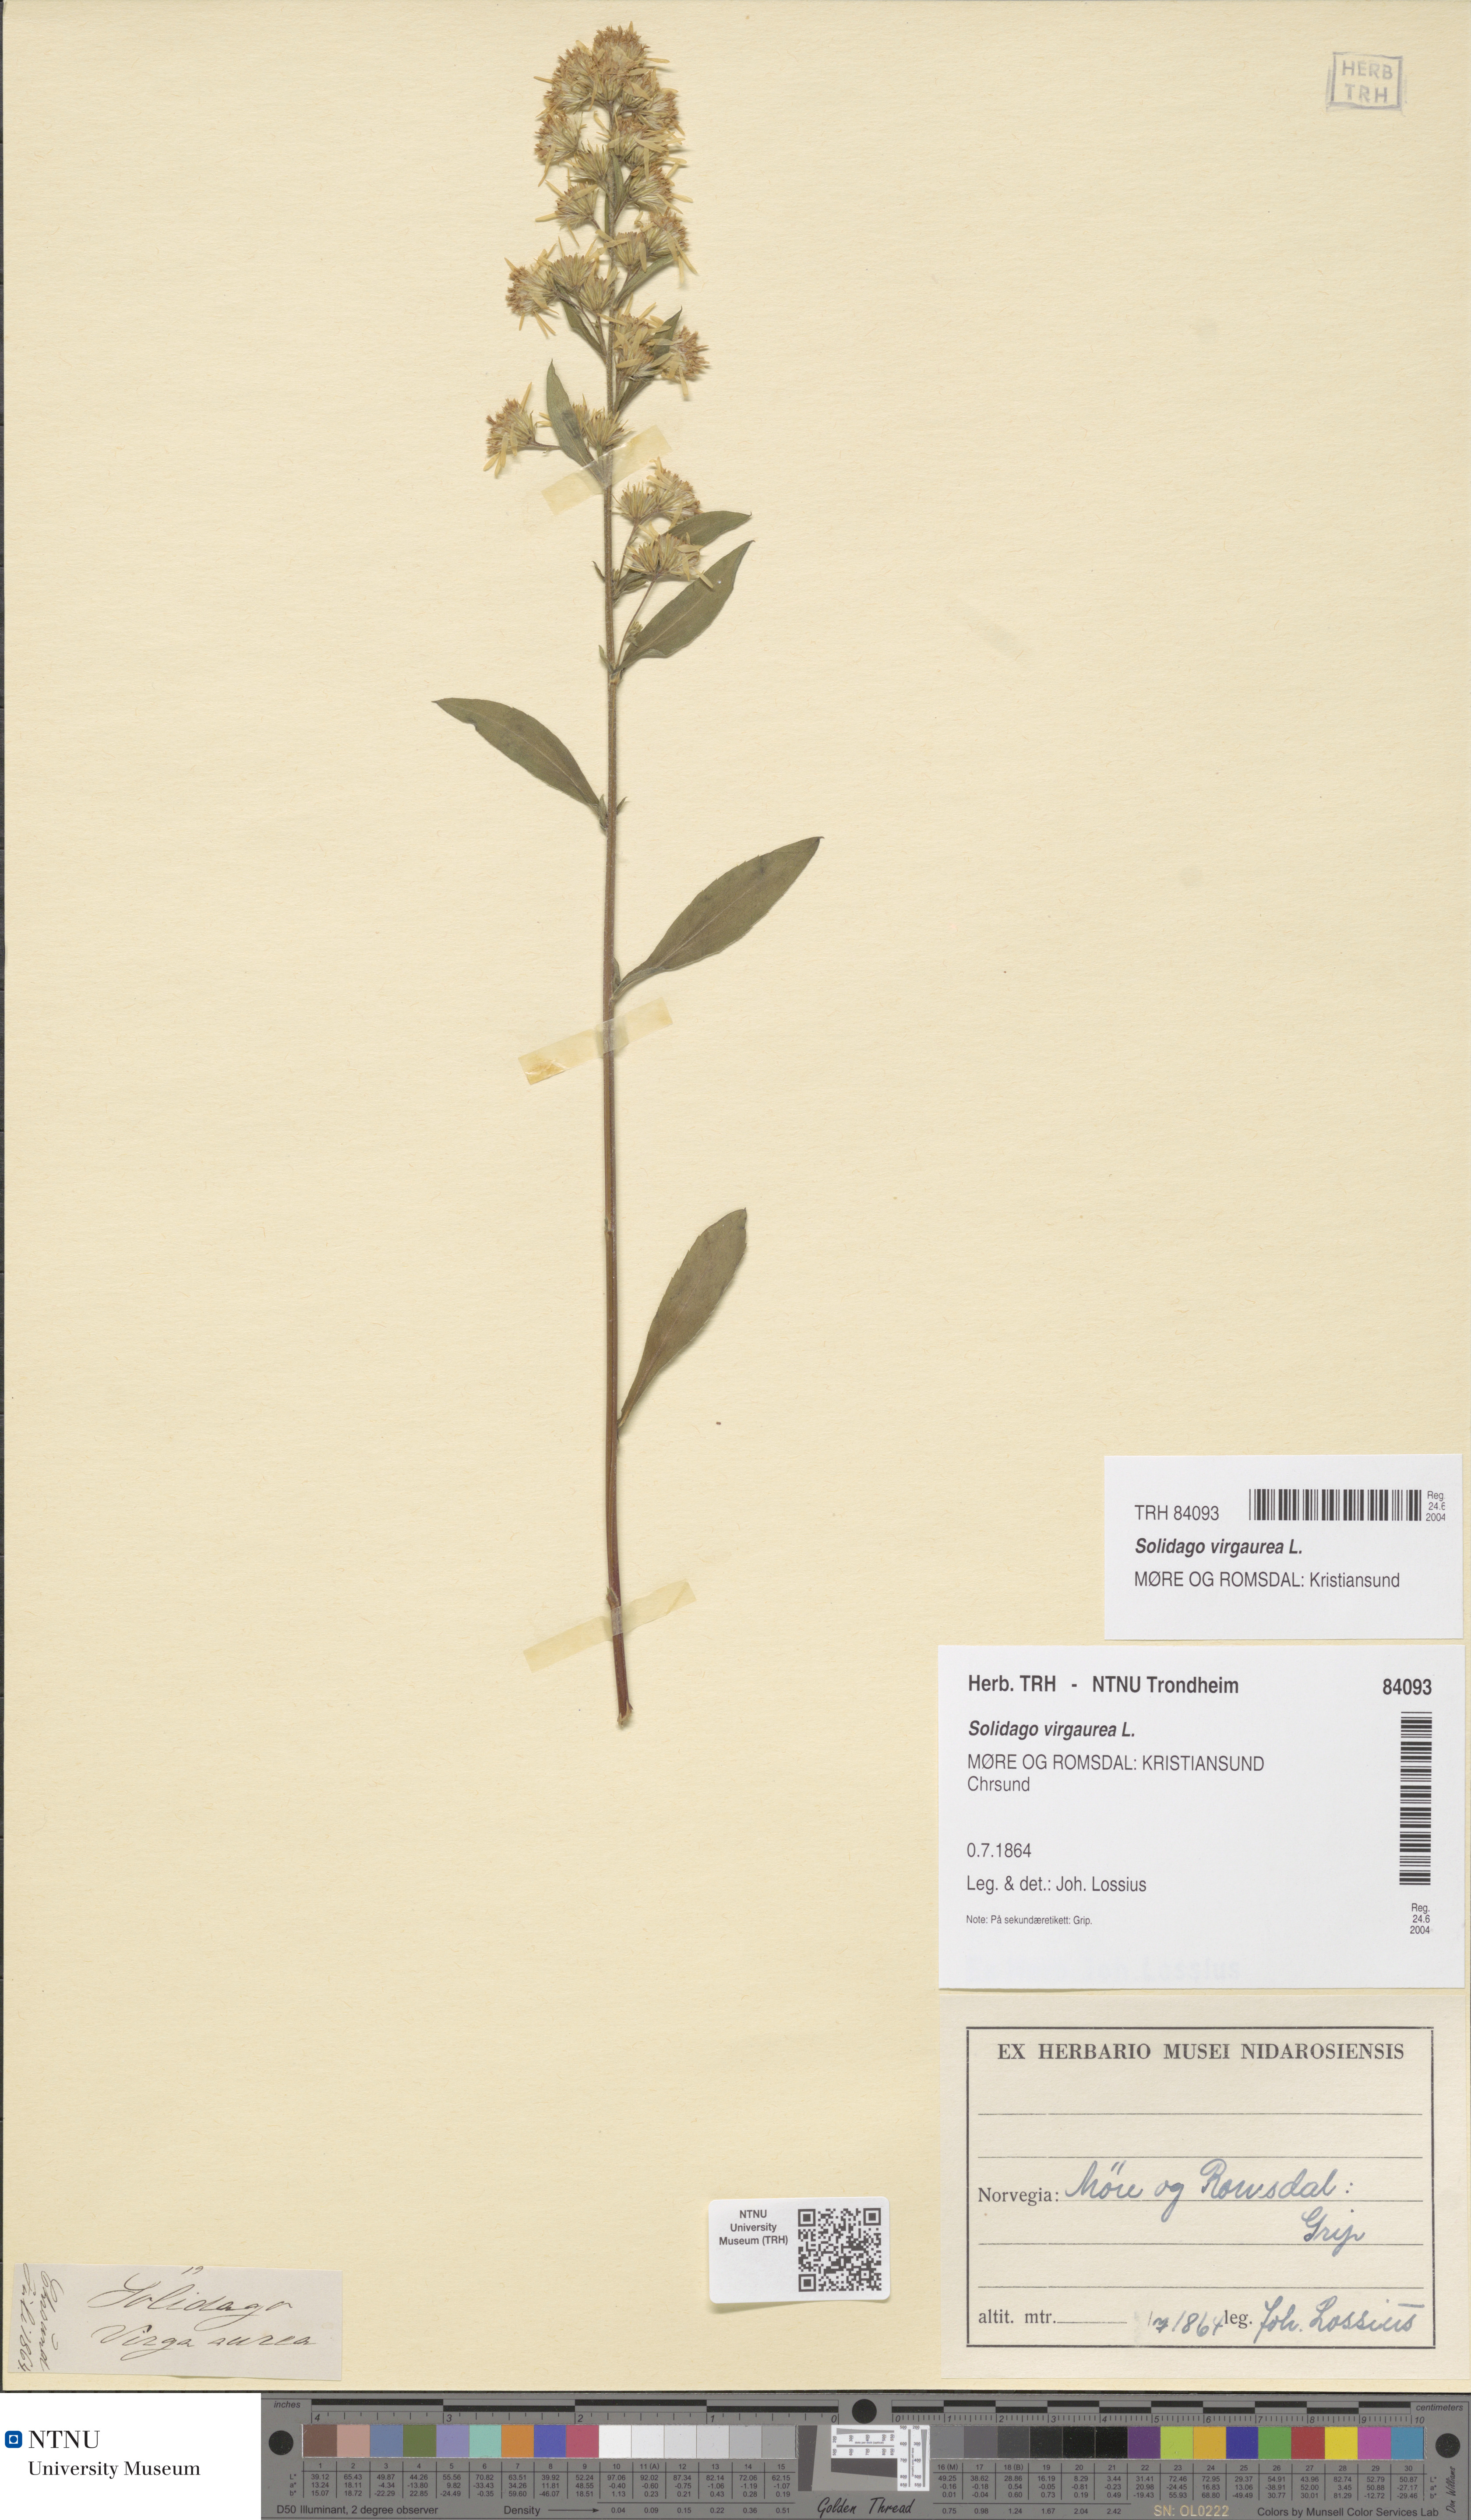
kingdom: Plantae
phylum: Tracheophyta
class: Magnoliopsida
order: Asterales
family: Asteraceae
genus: Solidago
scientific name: Solidago virgaurea
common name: Goldenrod
